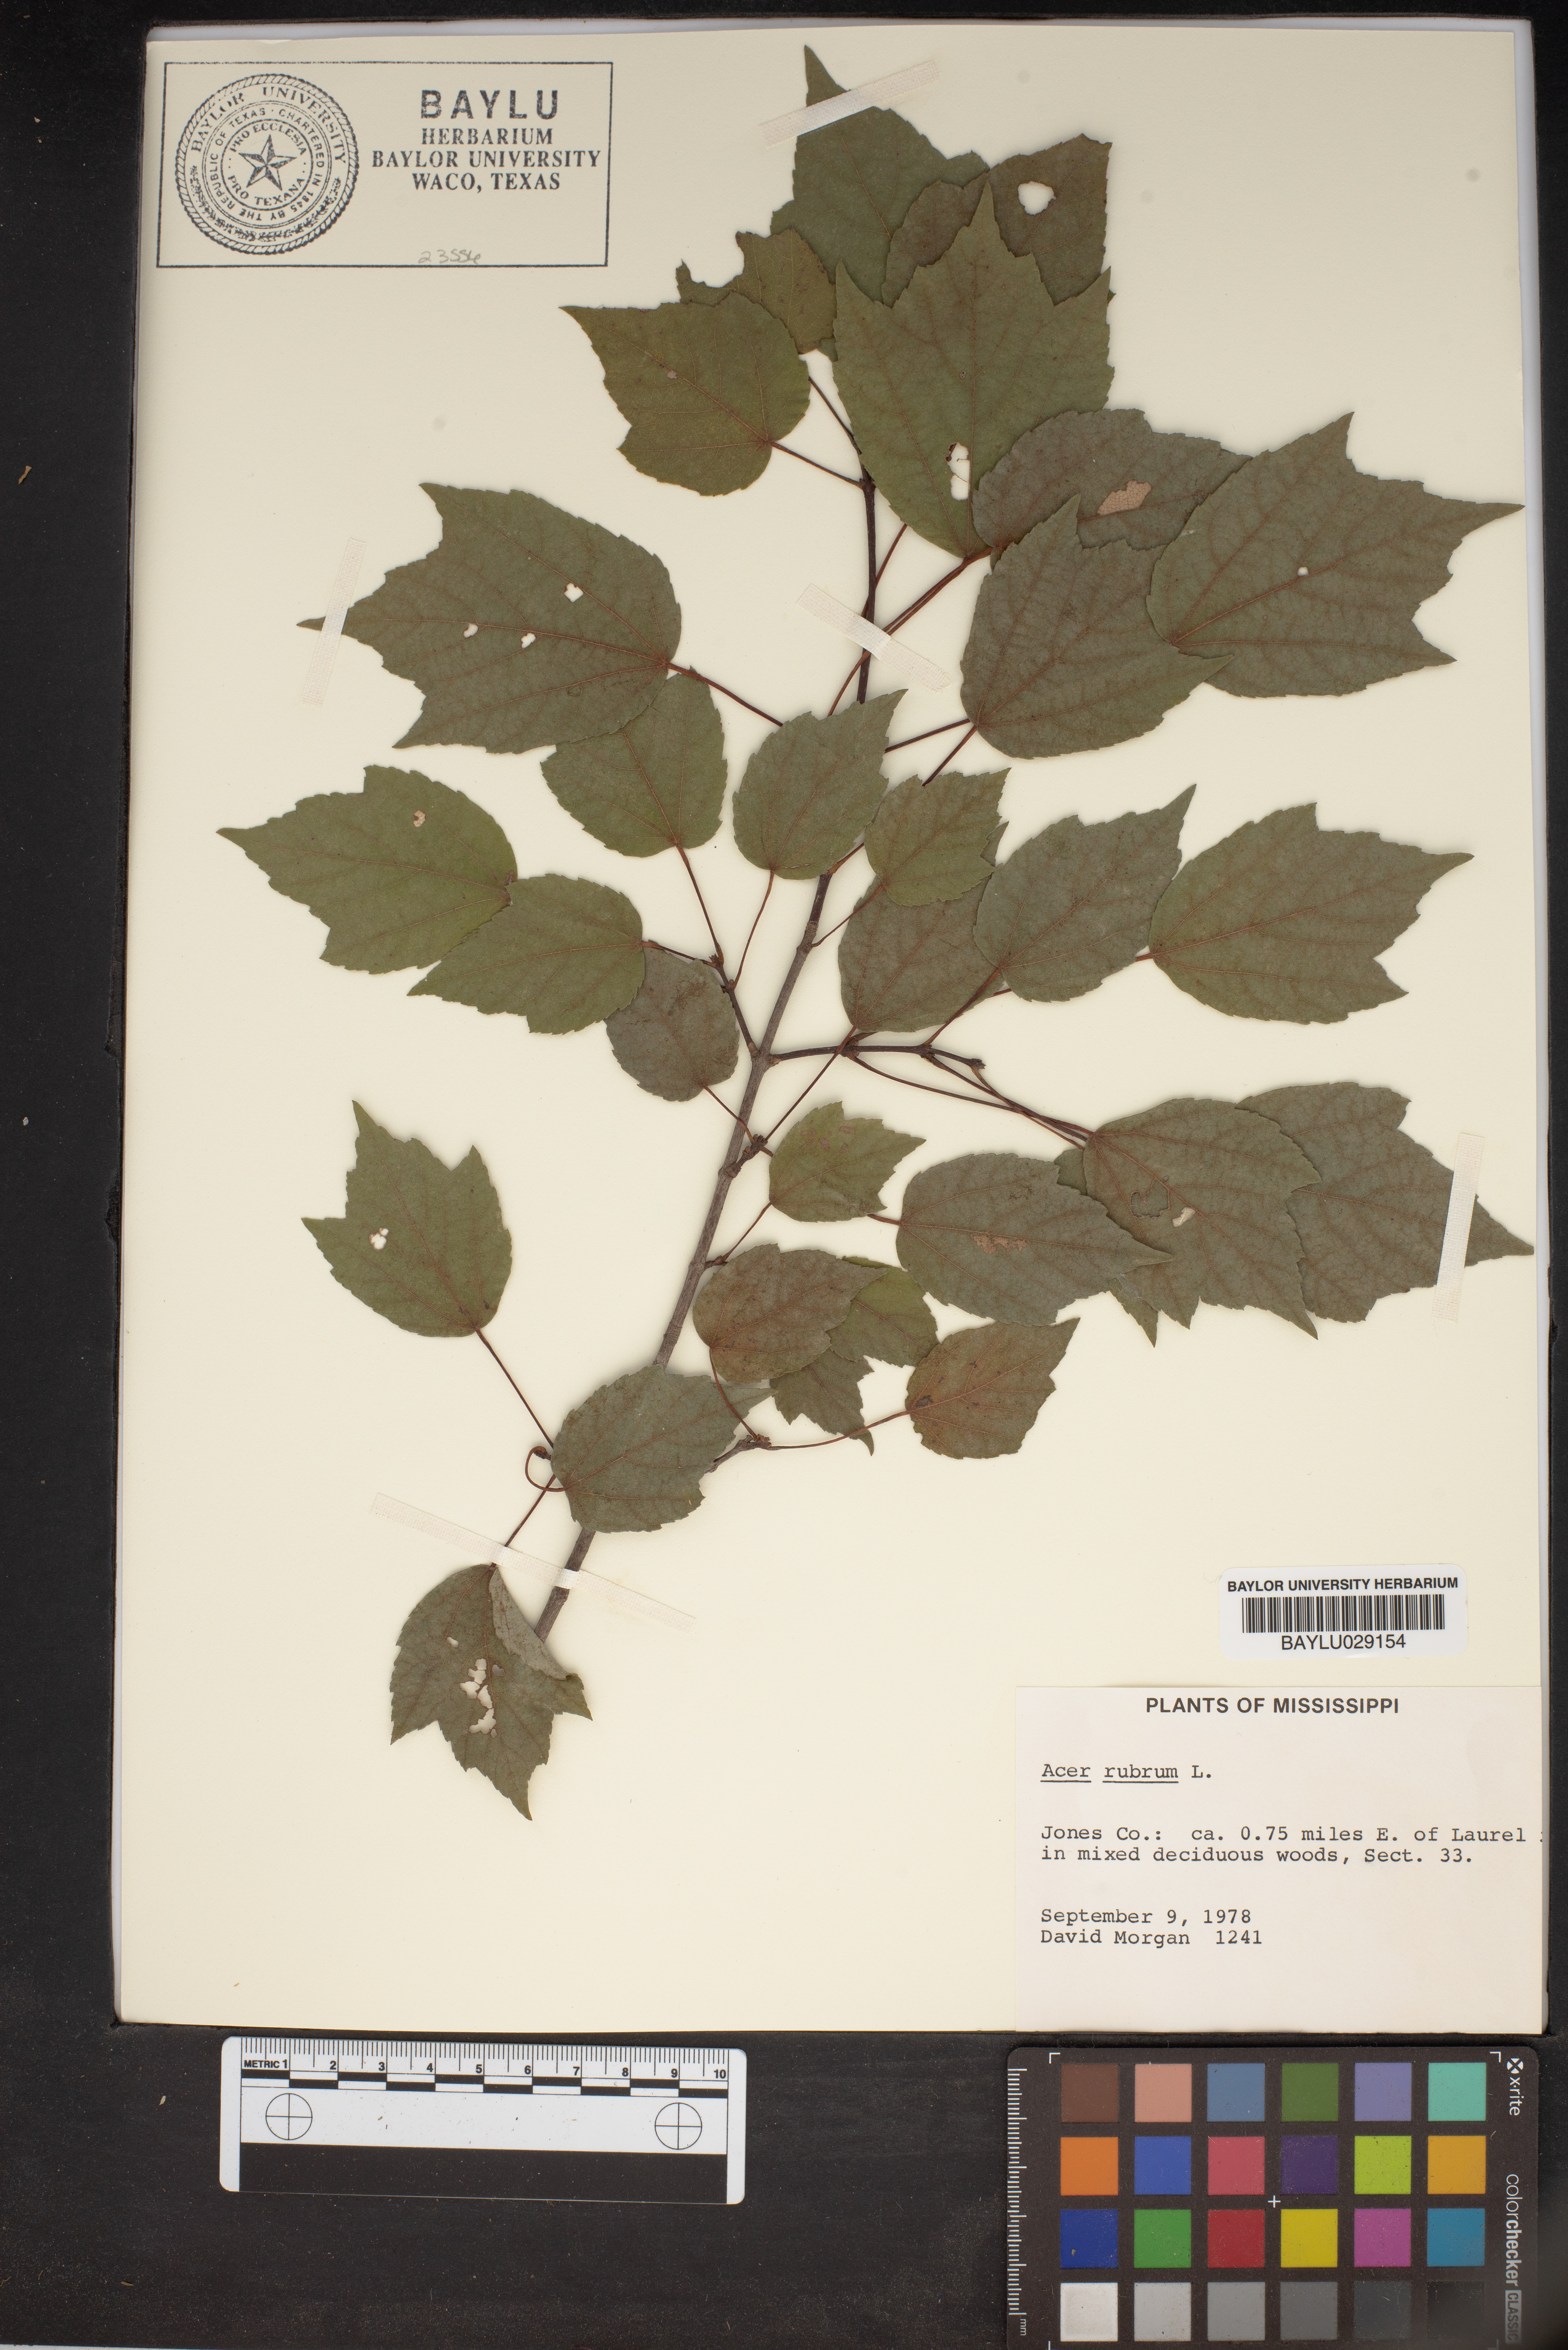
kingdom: Plantae
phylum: Tracheophyta
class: Magnoliopsida
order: Sapindales
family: Sapindaceae
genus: Acer
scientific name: Acer rubrum
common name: Red maple
